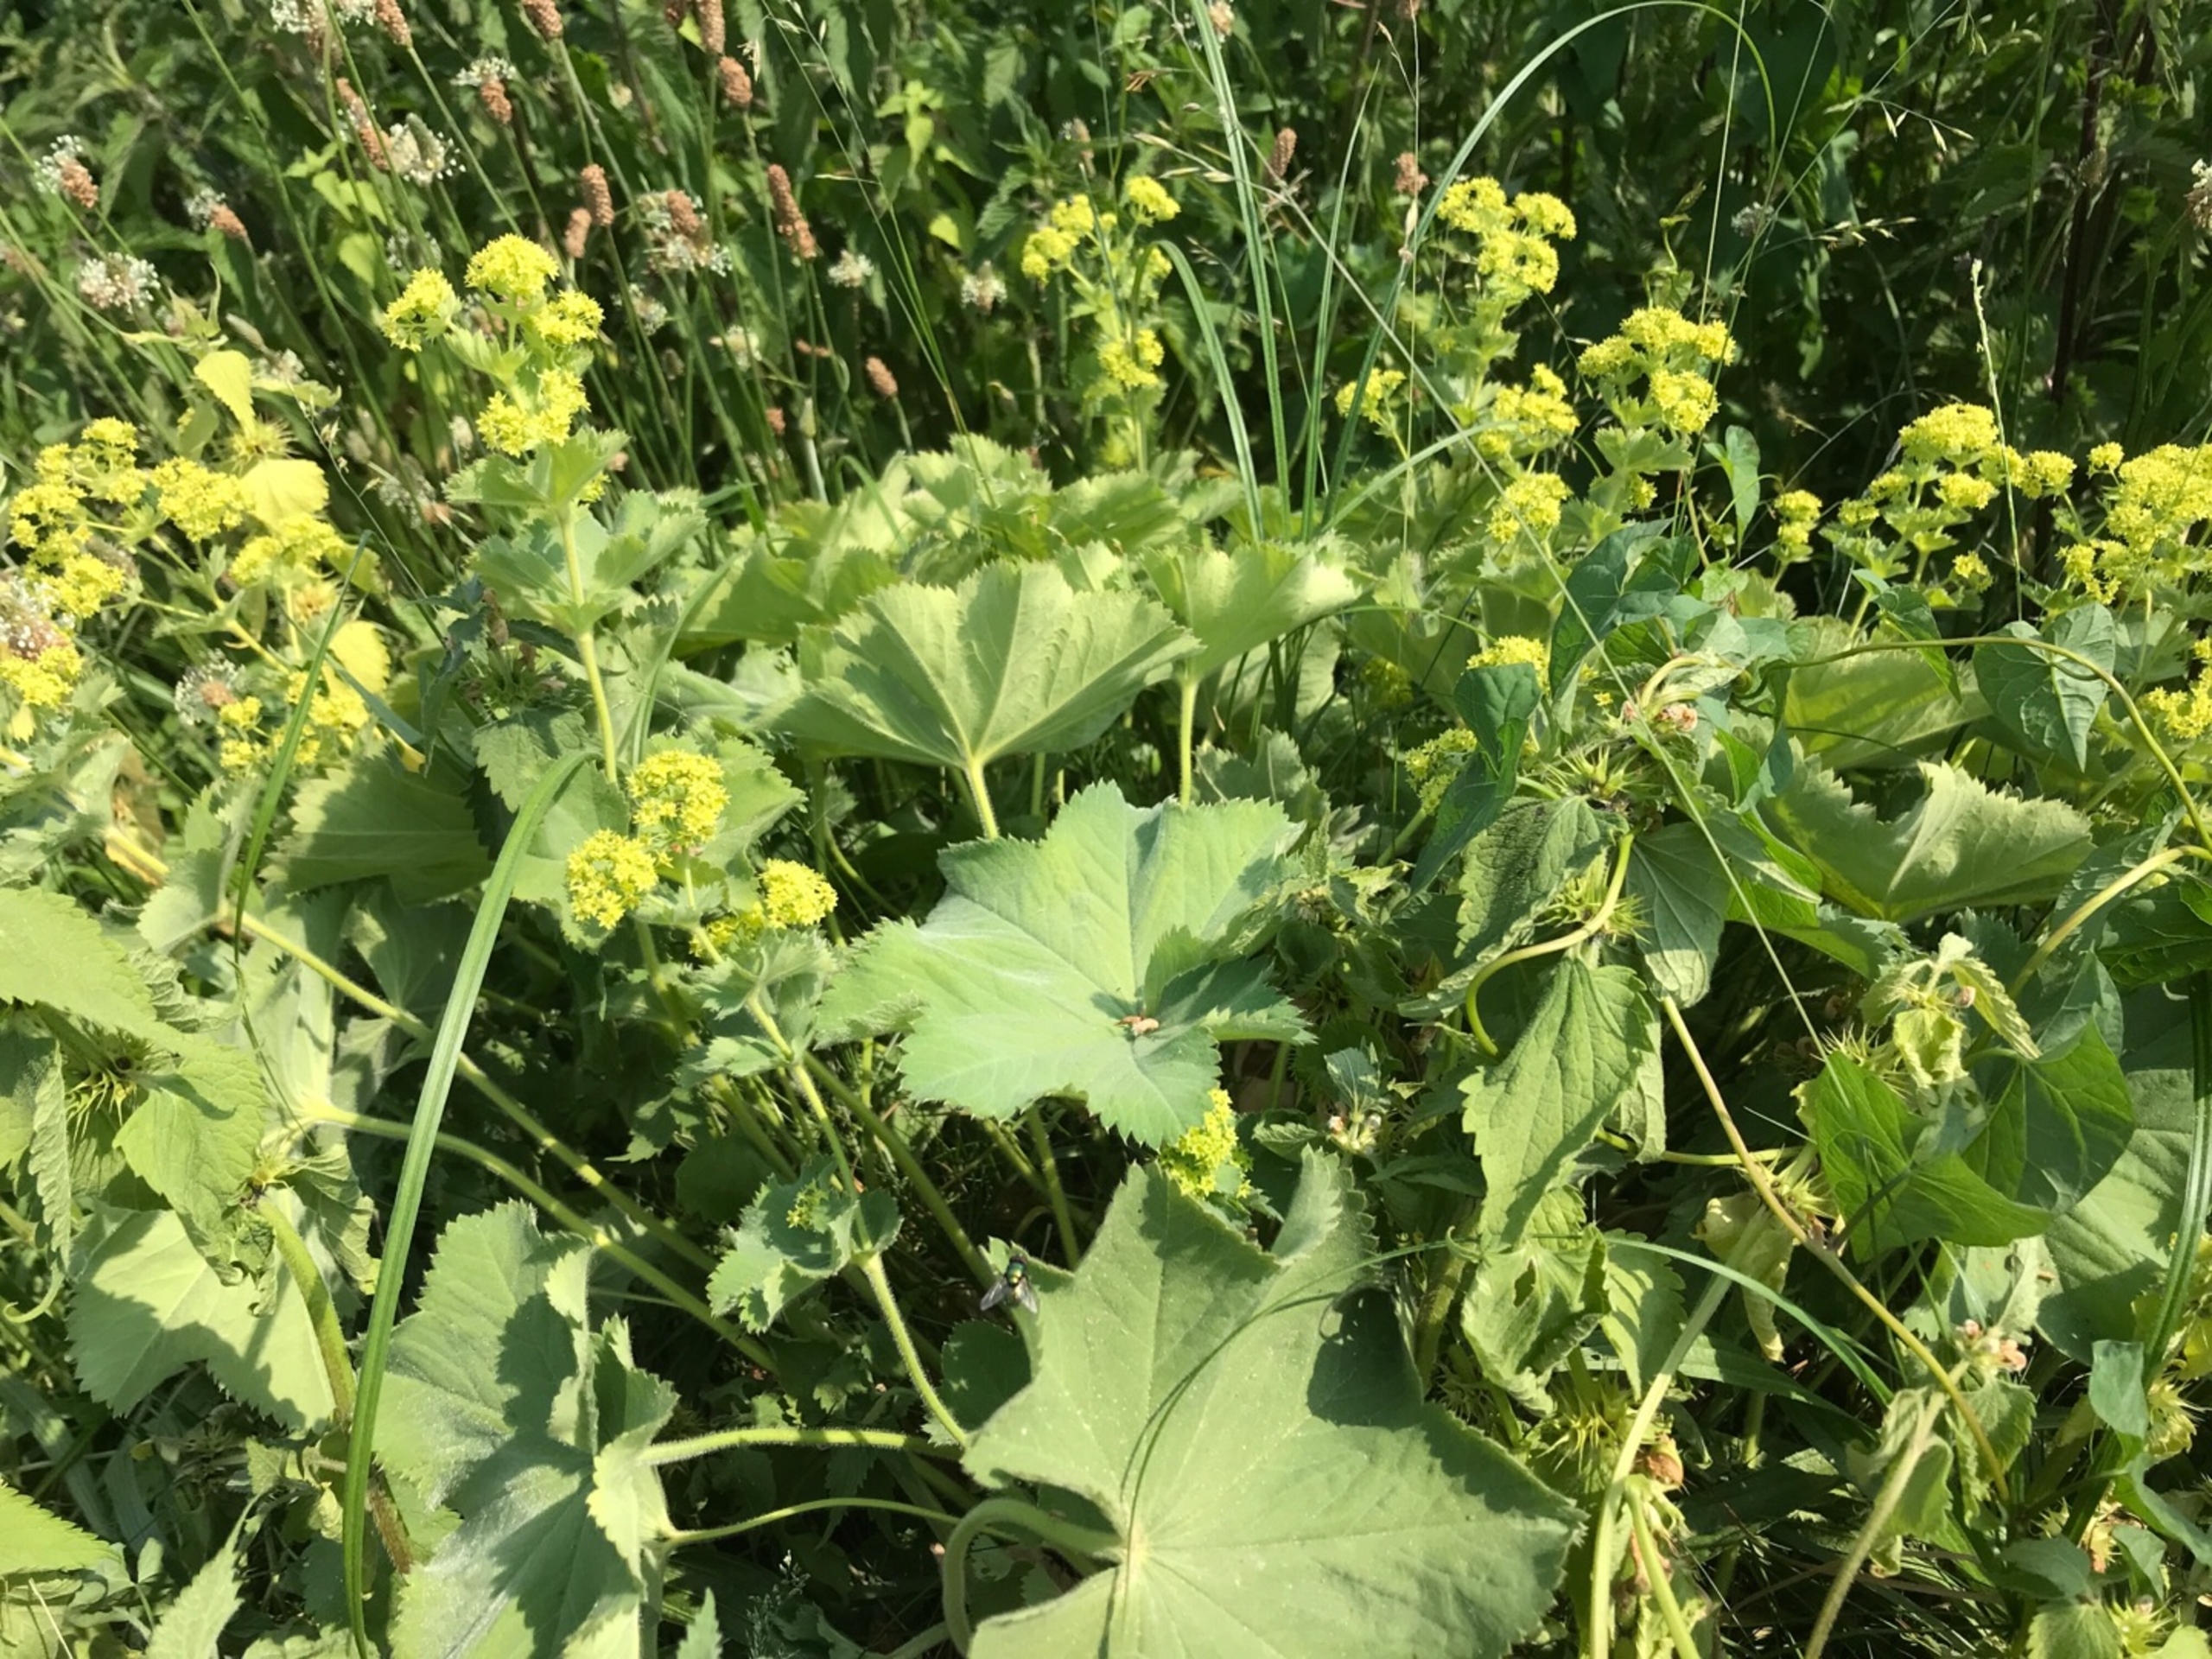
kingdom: Plantae
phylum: Tracheophyta
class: Magnoliopsida
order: Rosales
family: Rosaceae
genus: Alchemilla
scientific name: Alchemilla mollis
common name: Lådden løvefod
